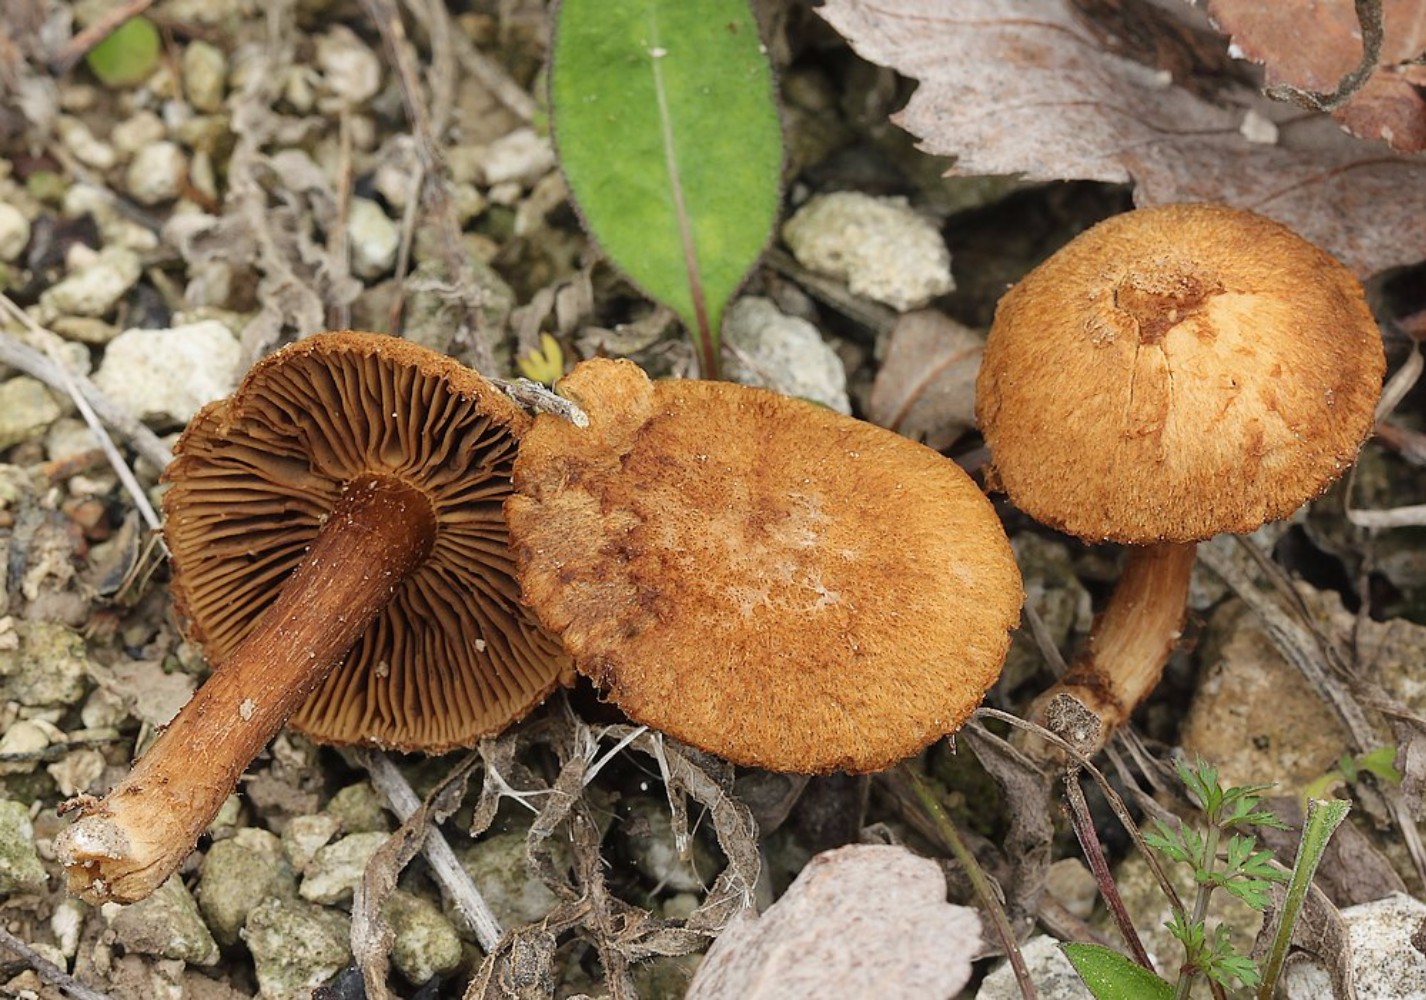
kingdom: Fungi
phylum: Basidiomycota
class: Agaricomycetes
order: Agaricales
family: Inocybaceae
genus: Mallocybe
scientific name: Mallocybe plebeia
